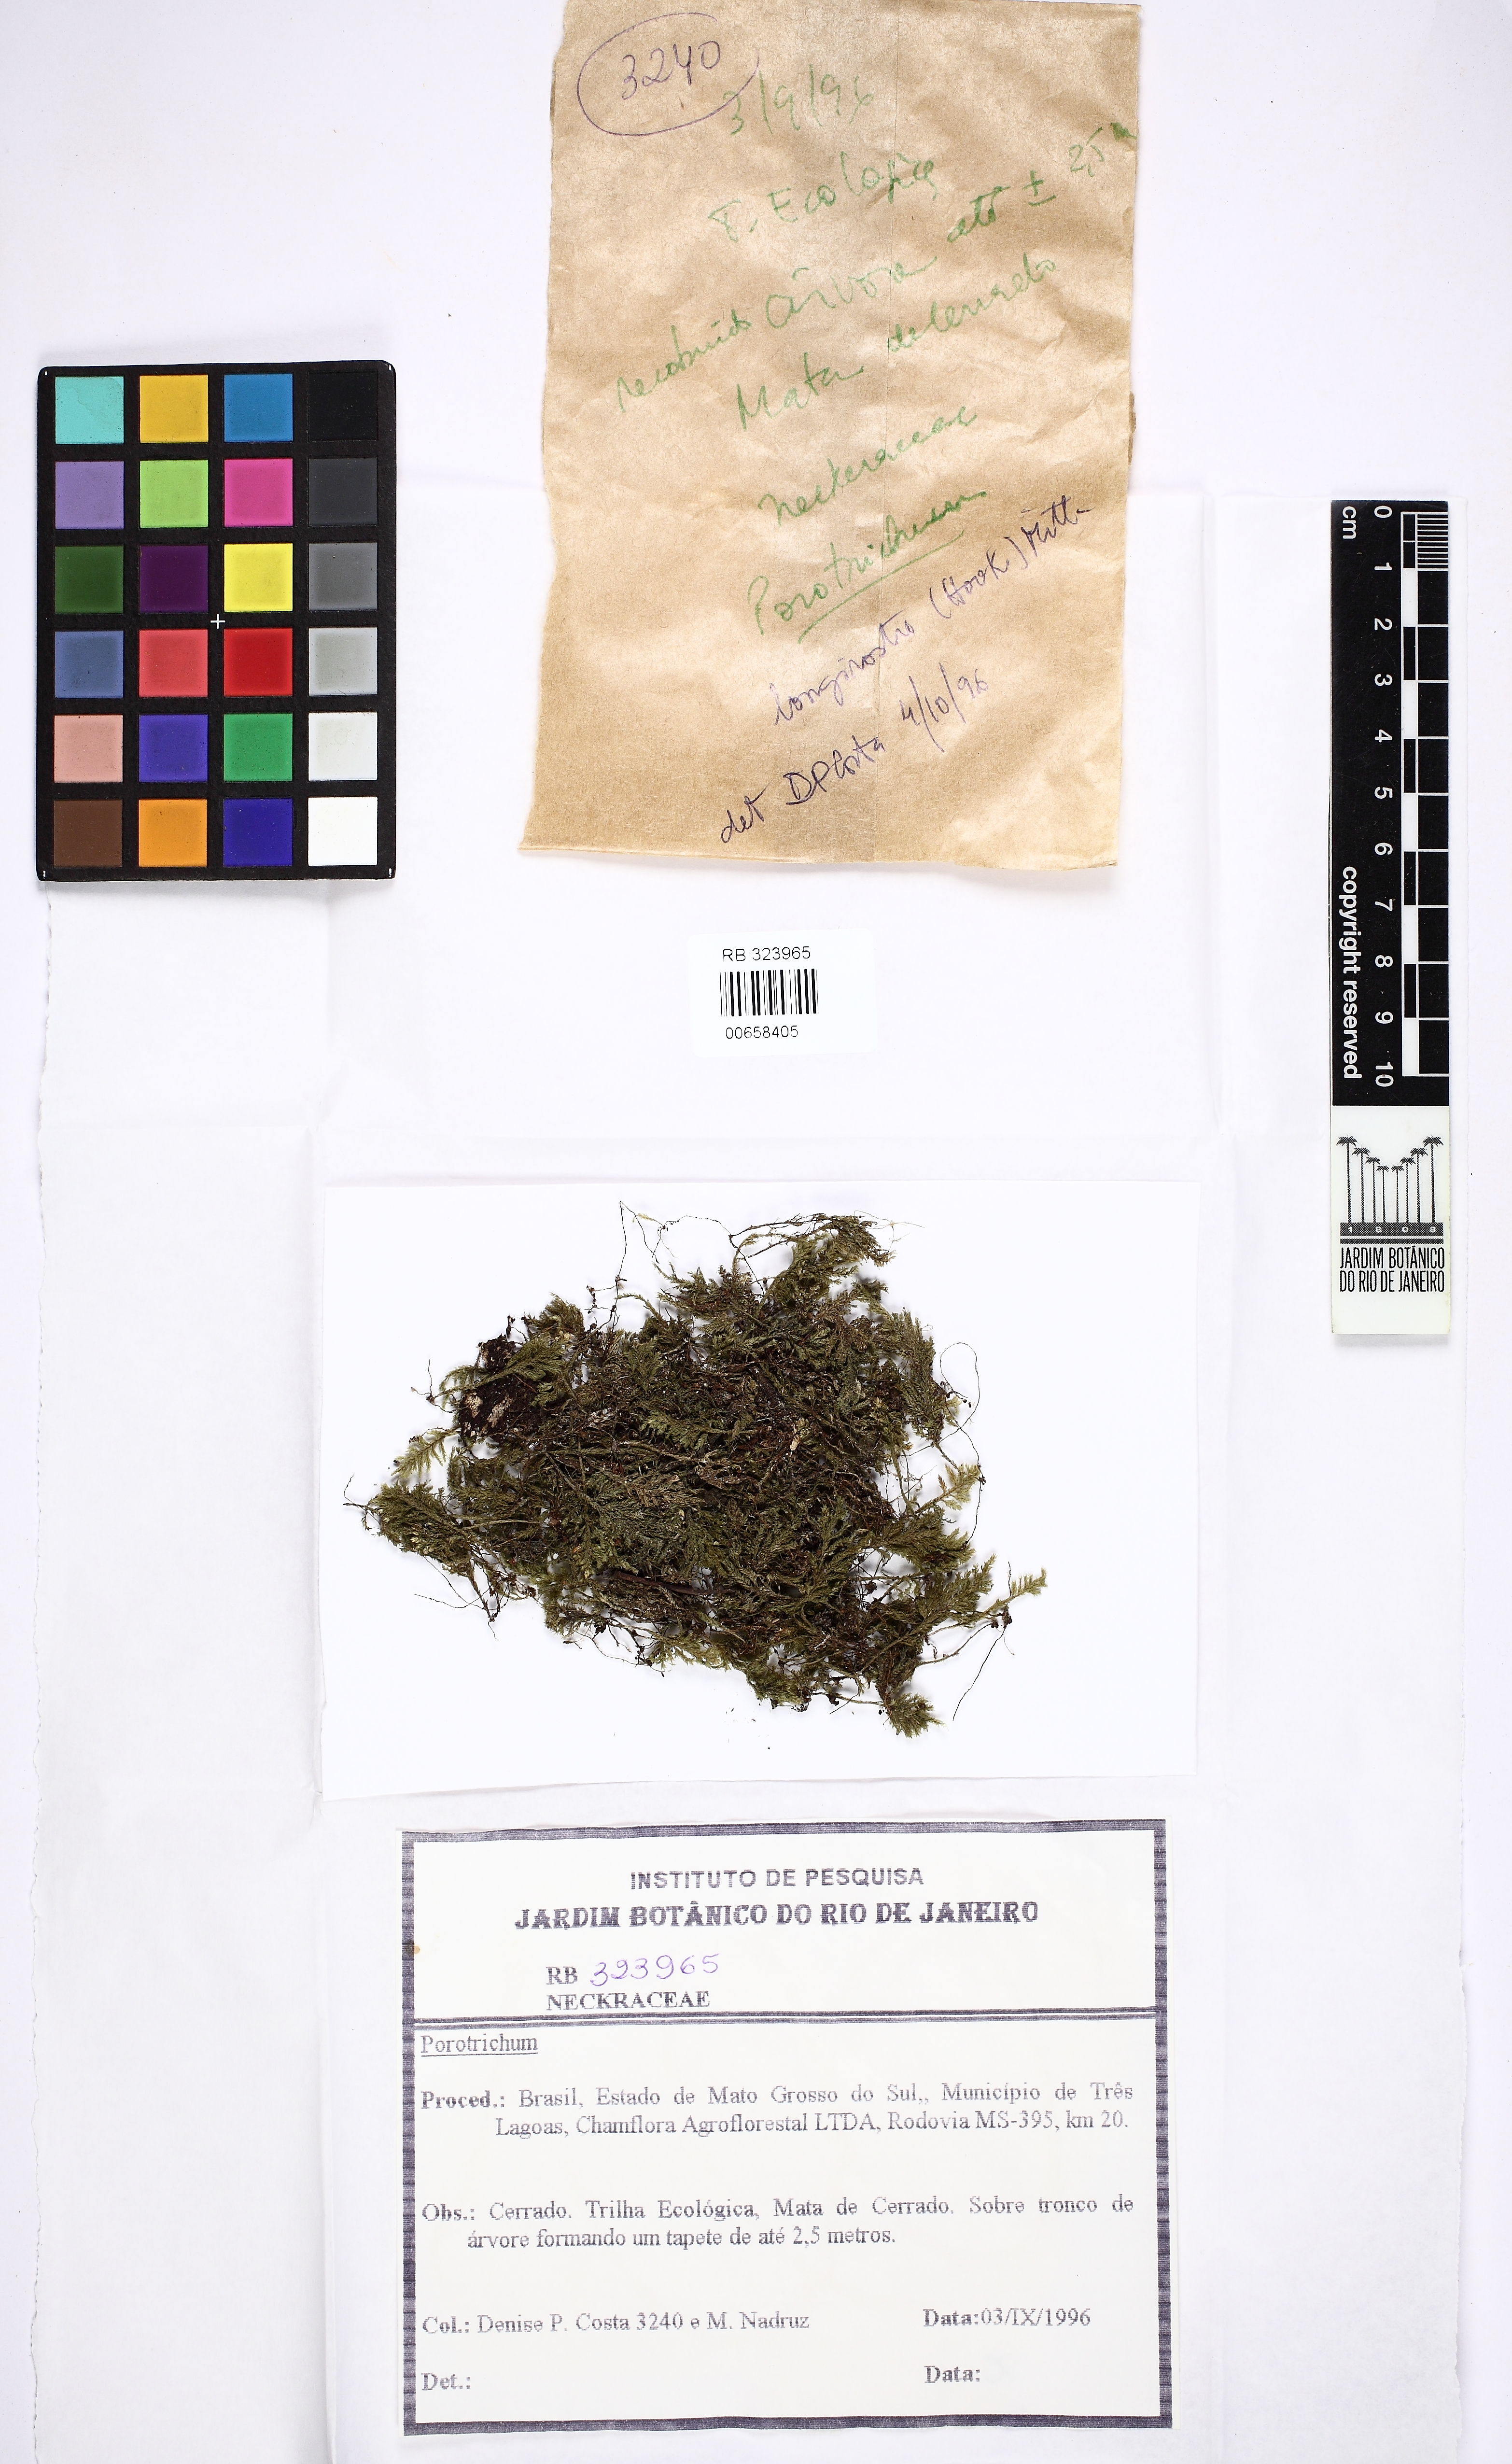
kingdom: Plantae
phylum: Bryophyta
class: Bryopsida
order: Hypnales
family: Neckeraceae
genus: Porotrichum
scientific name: Porotrichum
